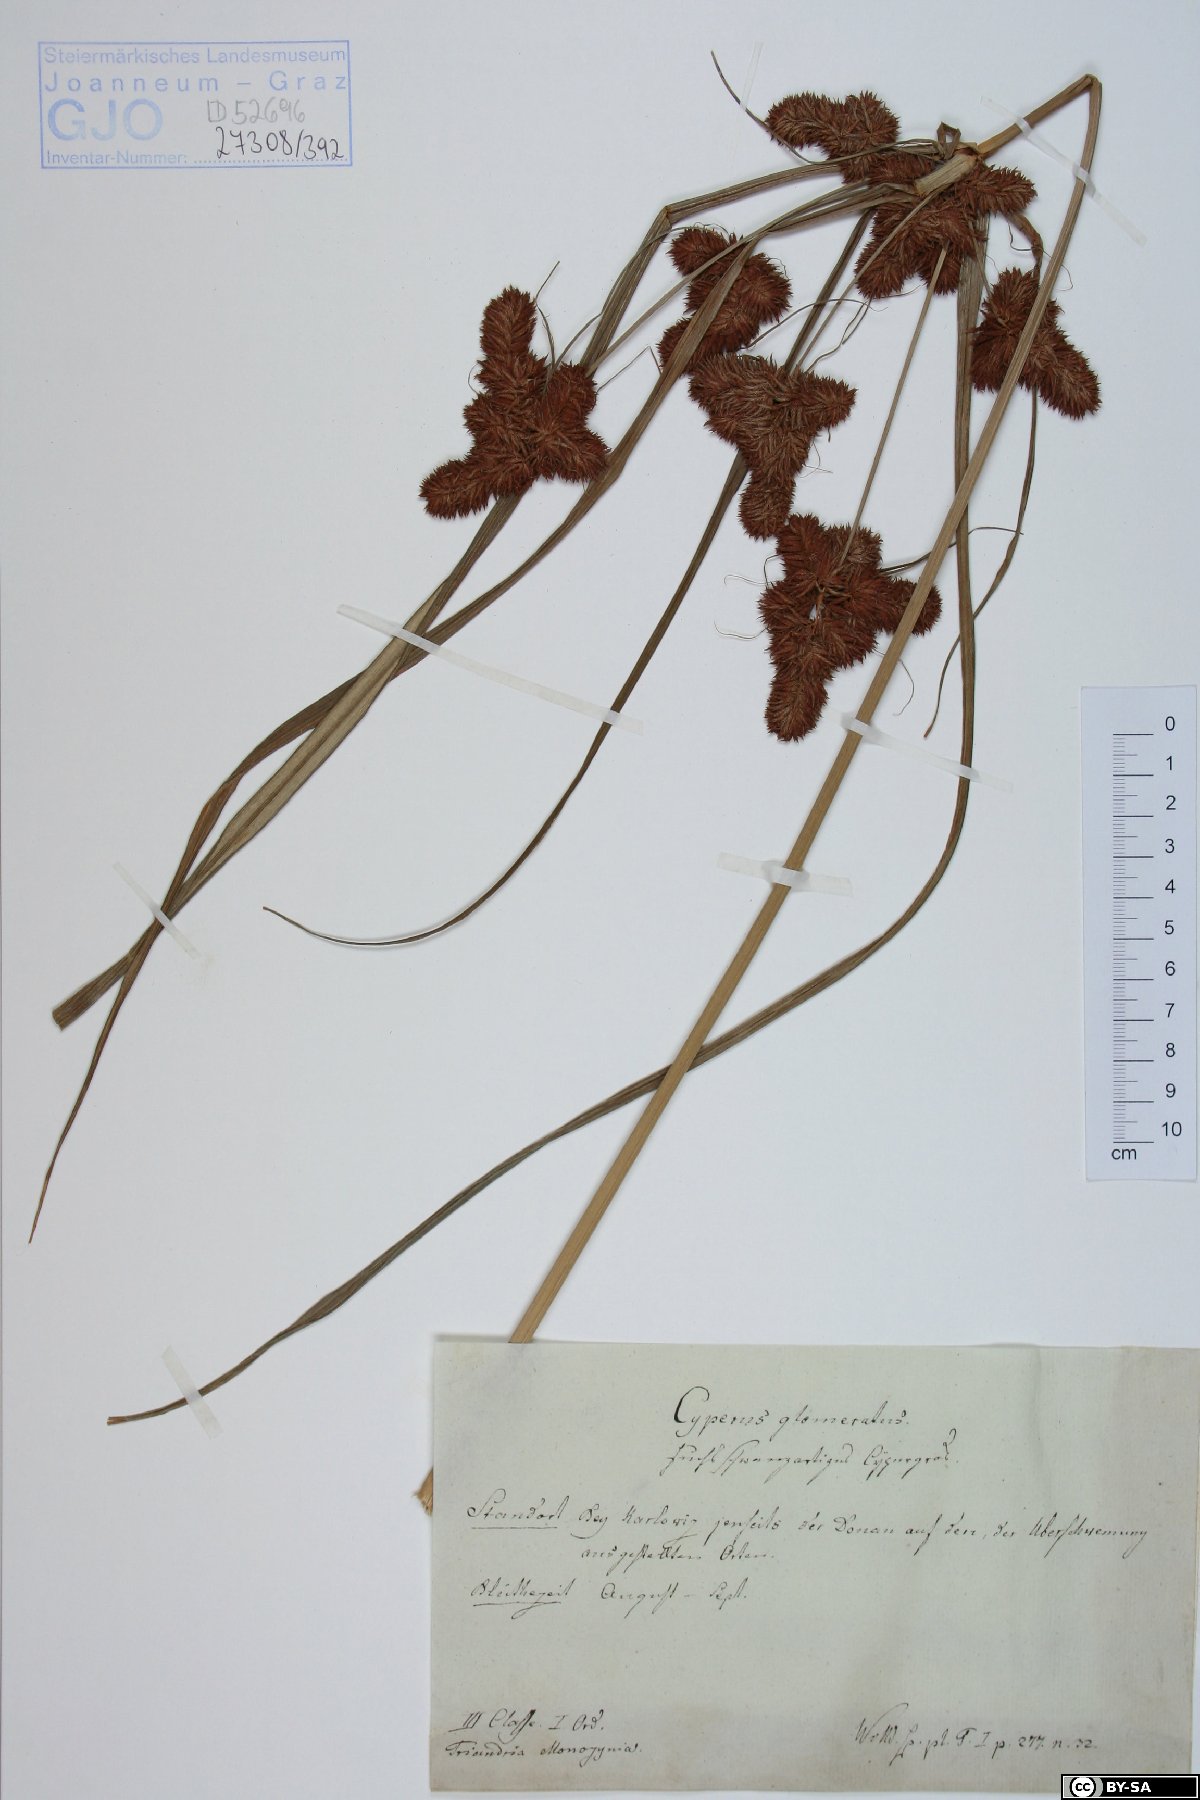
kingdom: Plantae
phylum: Tracheophyta
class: Liliopsida
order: Poales
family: Cyperaceae
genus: Cyperus
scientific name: Cyperus glomeratus
